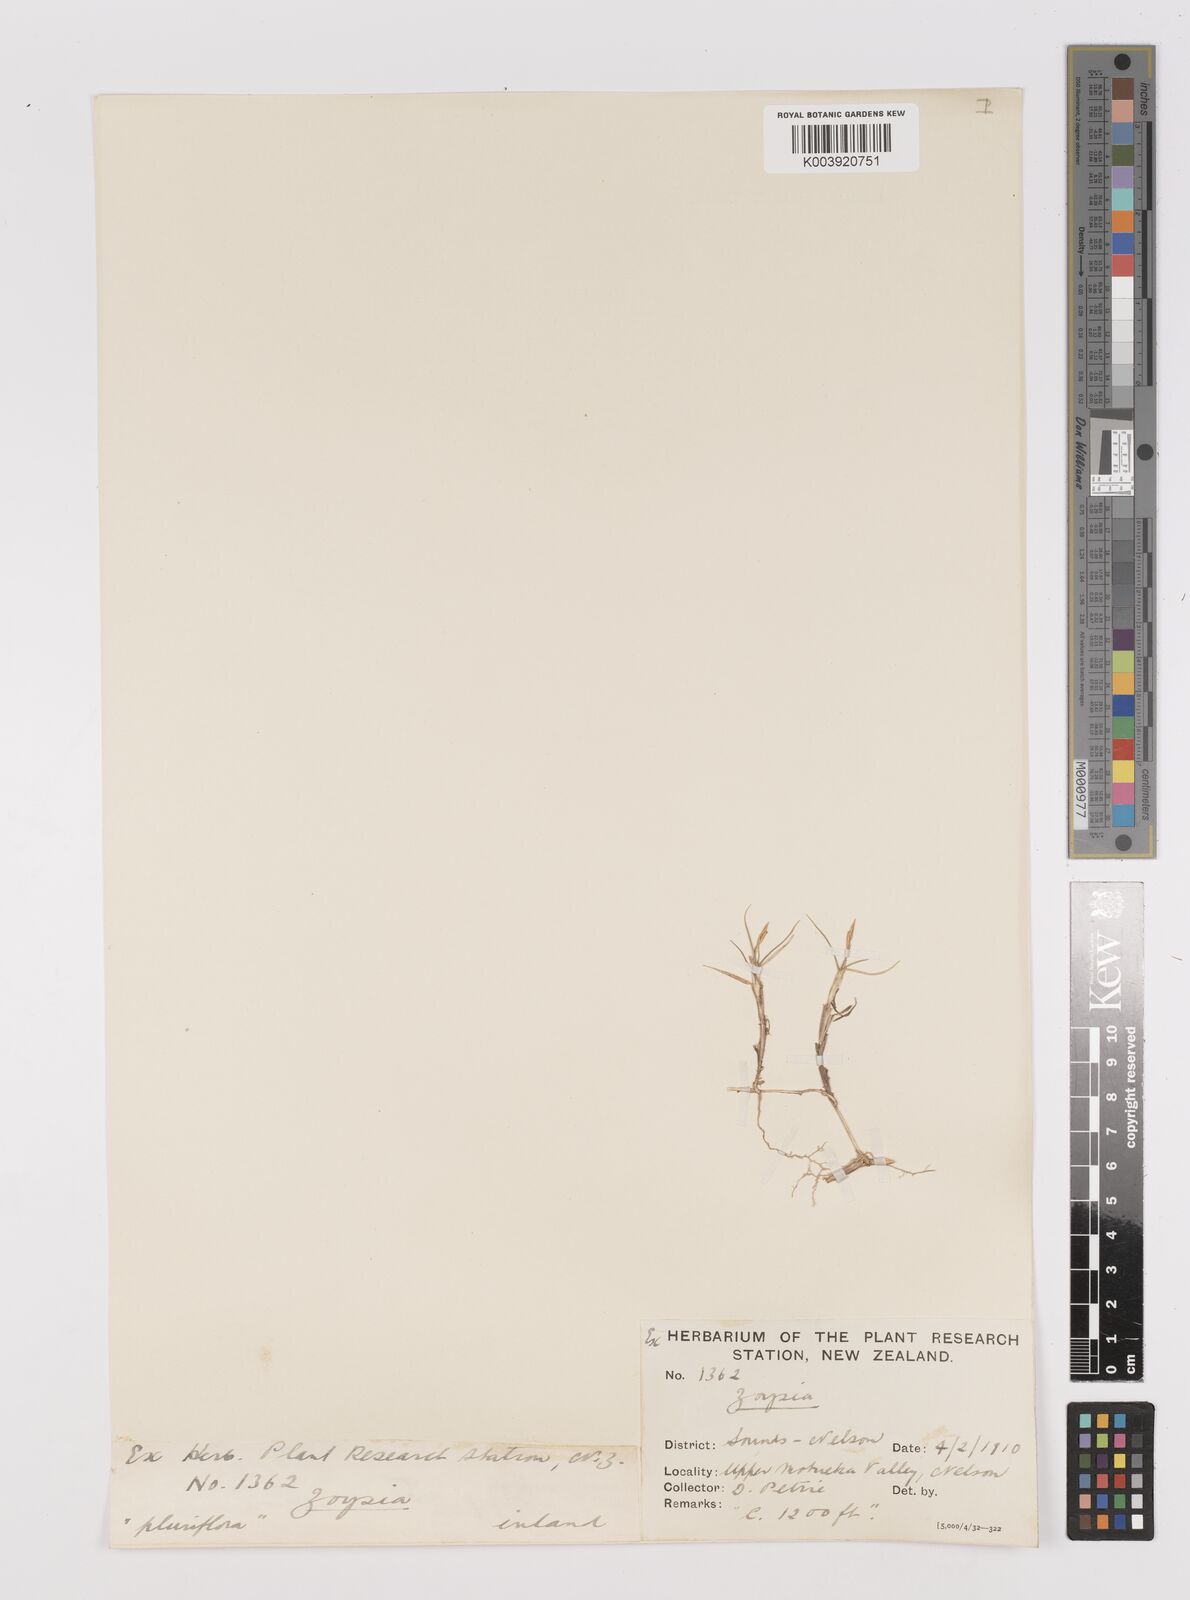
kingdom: Plantae
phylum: Tracheophyta
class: Liliopsida
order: Poales
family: Poaceae
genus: Zoysia
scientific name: Zoysia minima
